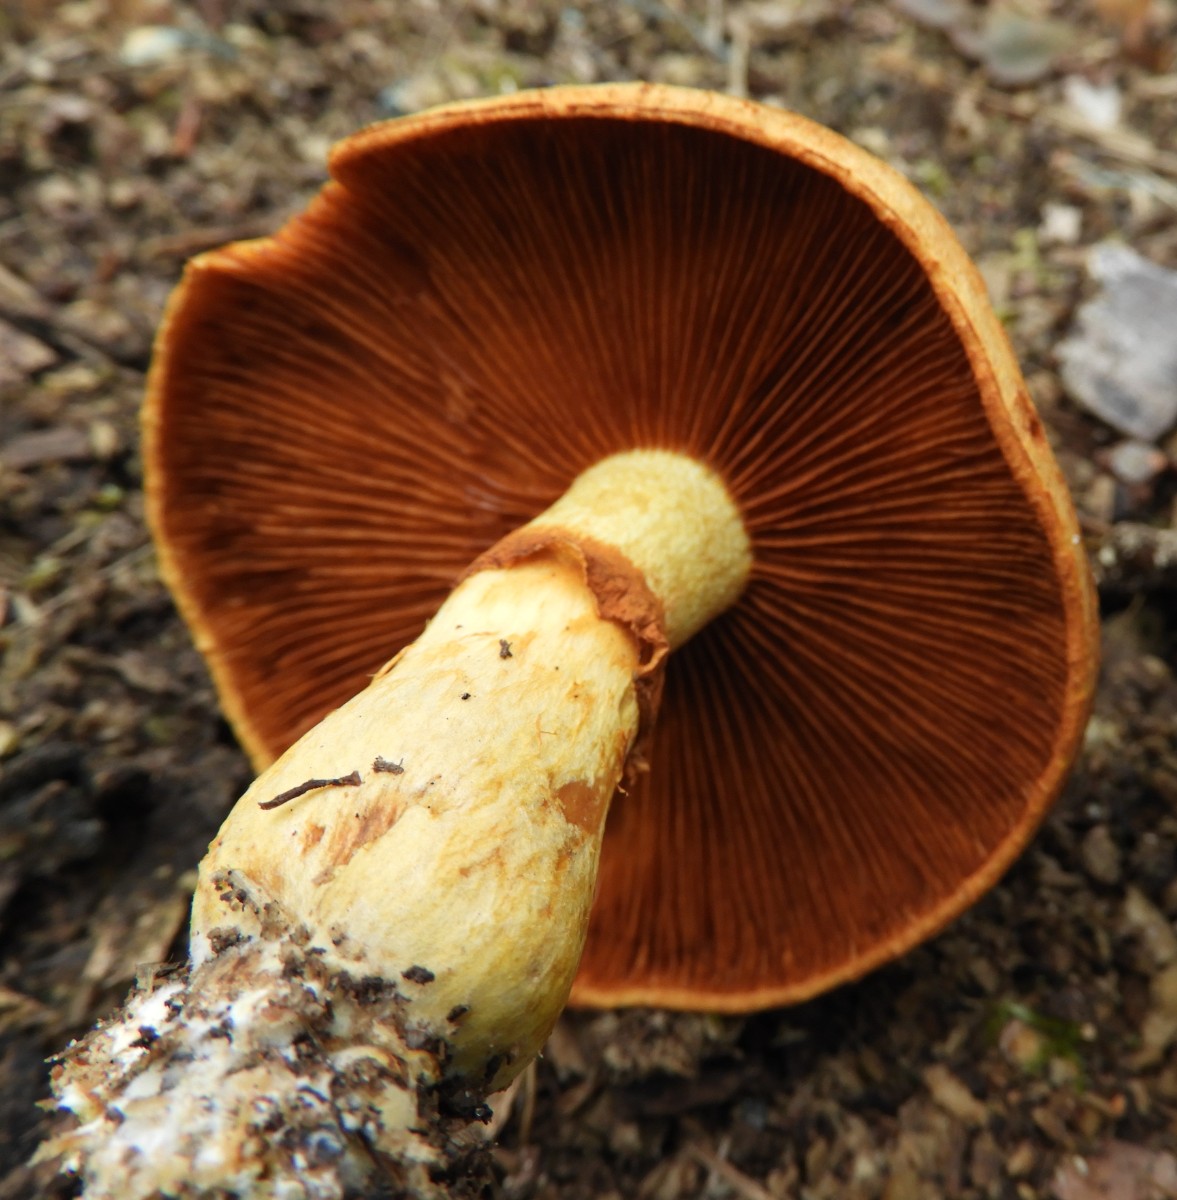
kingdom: Fungi
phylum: Basidiomycota
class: Agaricomycetes
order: Agaricales
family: Hymenogastraceae
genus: Gymnopilus
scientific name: Gymnopilus spectabilis
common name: fibret flammehat
